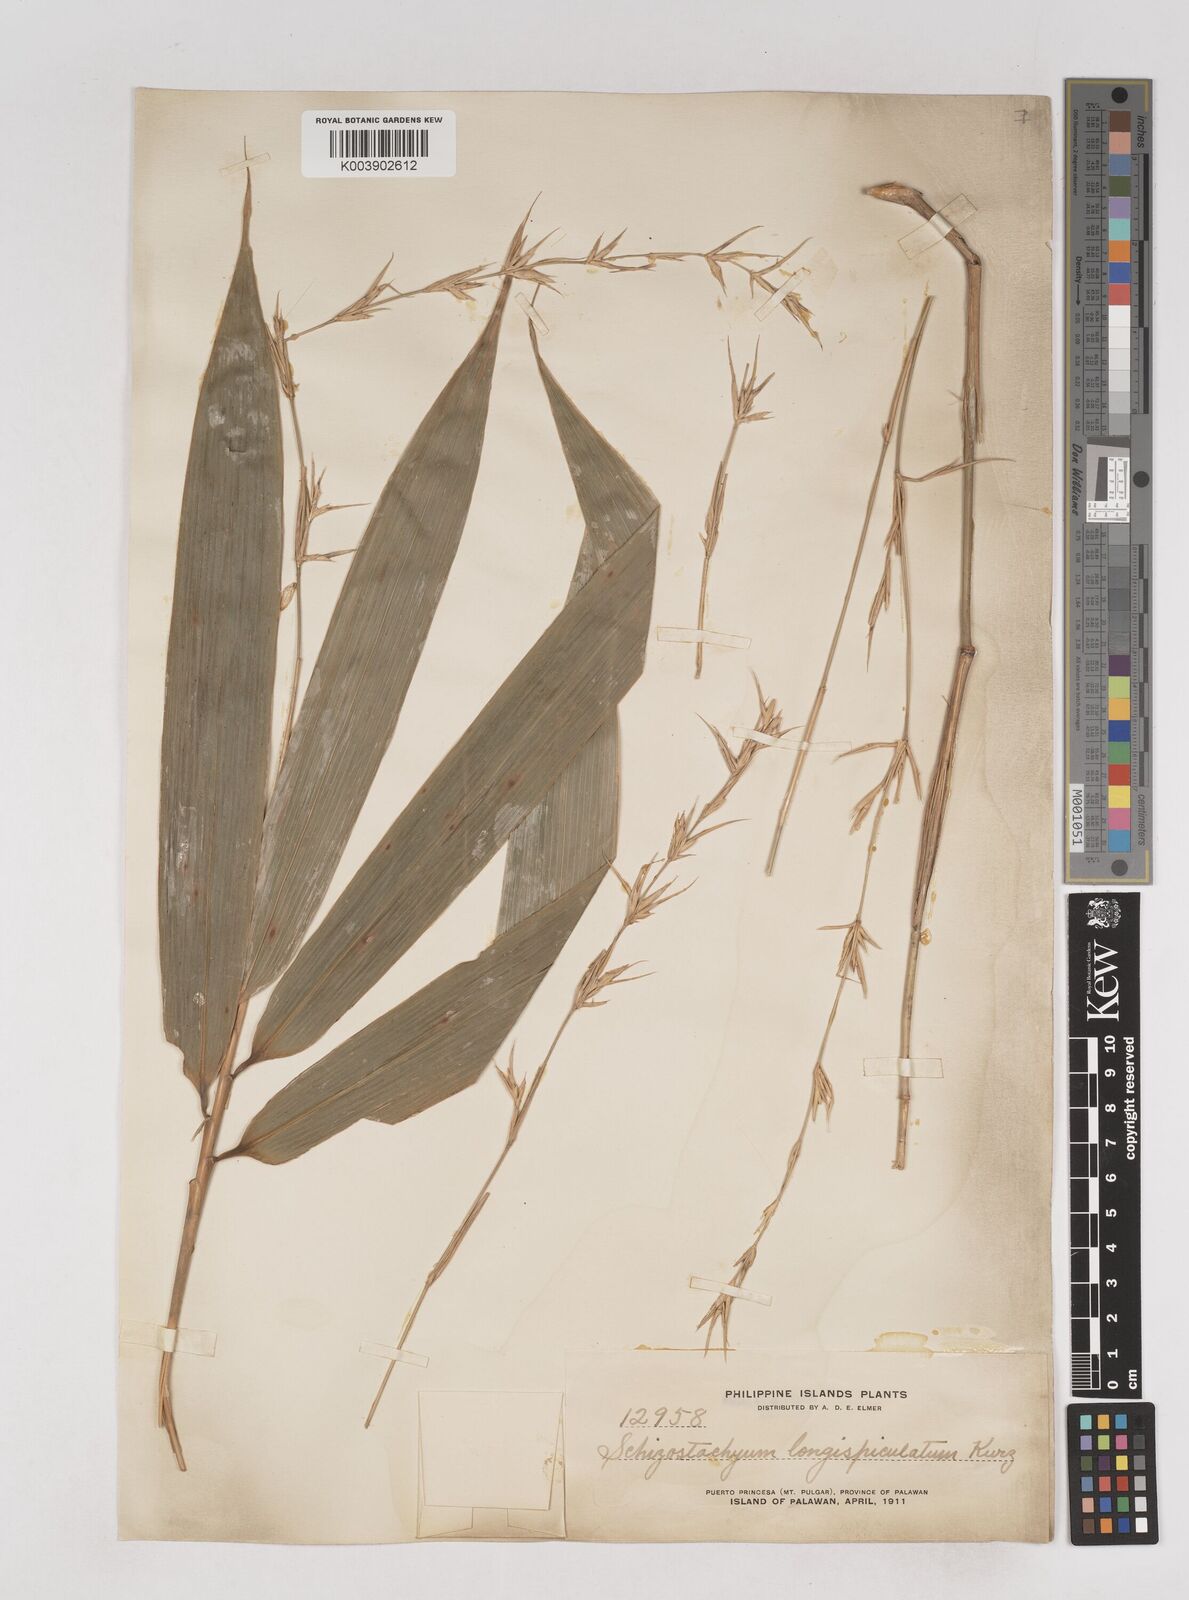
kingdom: Plantae
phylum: Tracheophyta
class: Liliopsida
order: Poales
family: Poaceae
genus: Schizostachyum
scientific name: Schizostachyum lima
